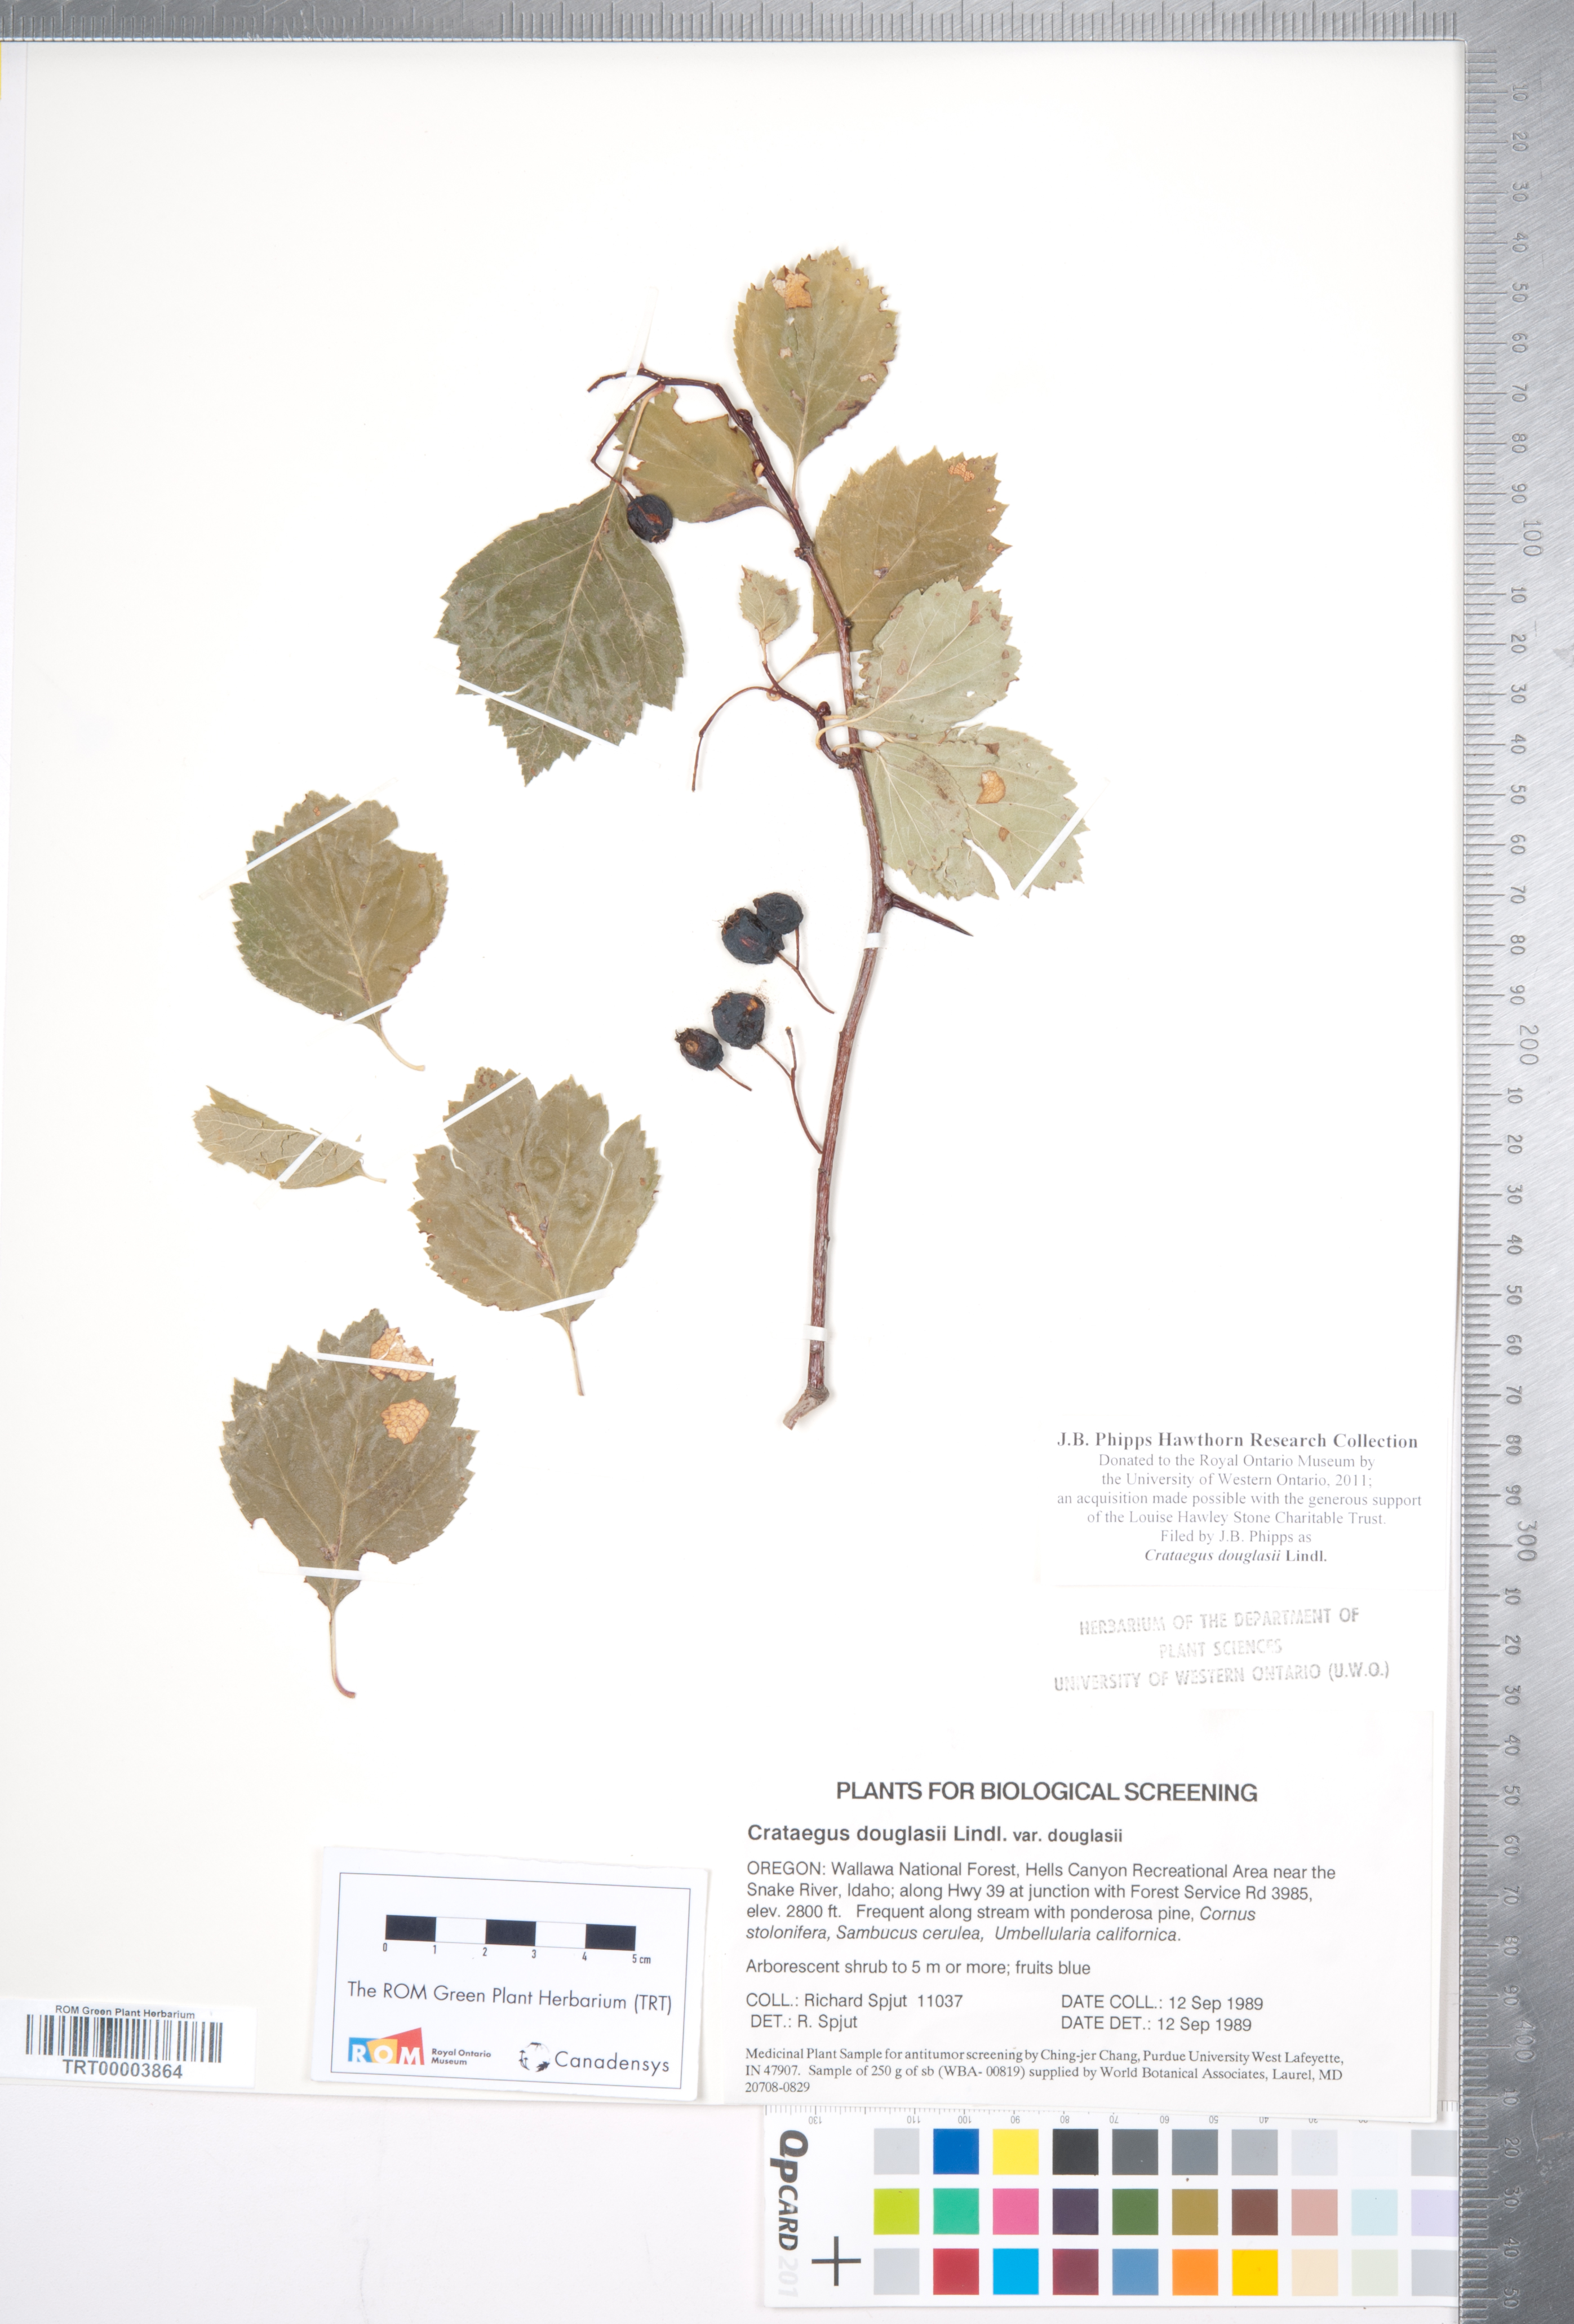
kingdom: Plantae
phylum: Tracheophyta
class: Magnoliopsida
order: Rosales
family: Rosaceae
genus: Crataegus
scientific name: Crataegus douglasii
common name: Black hawthorn
